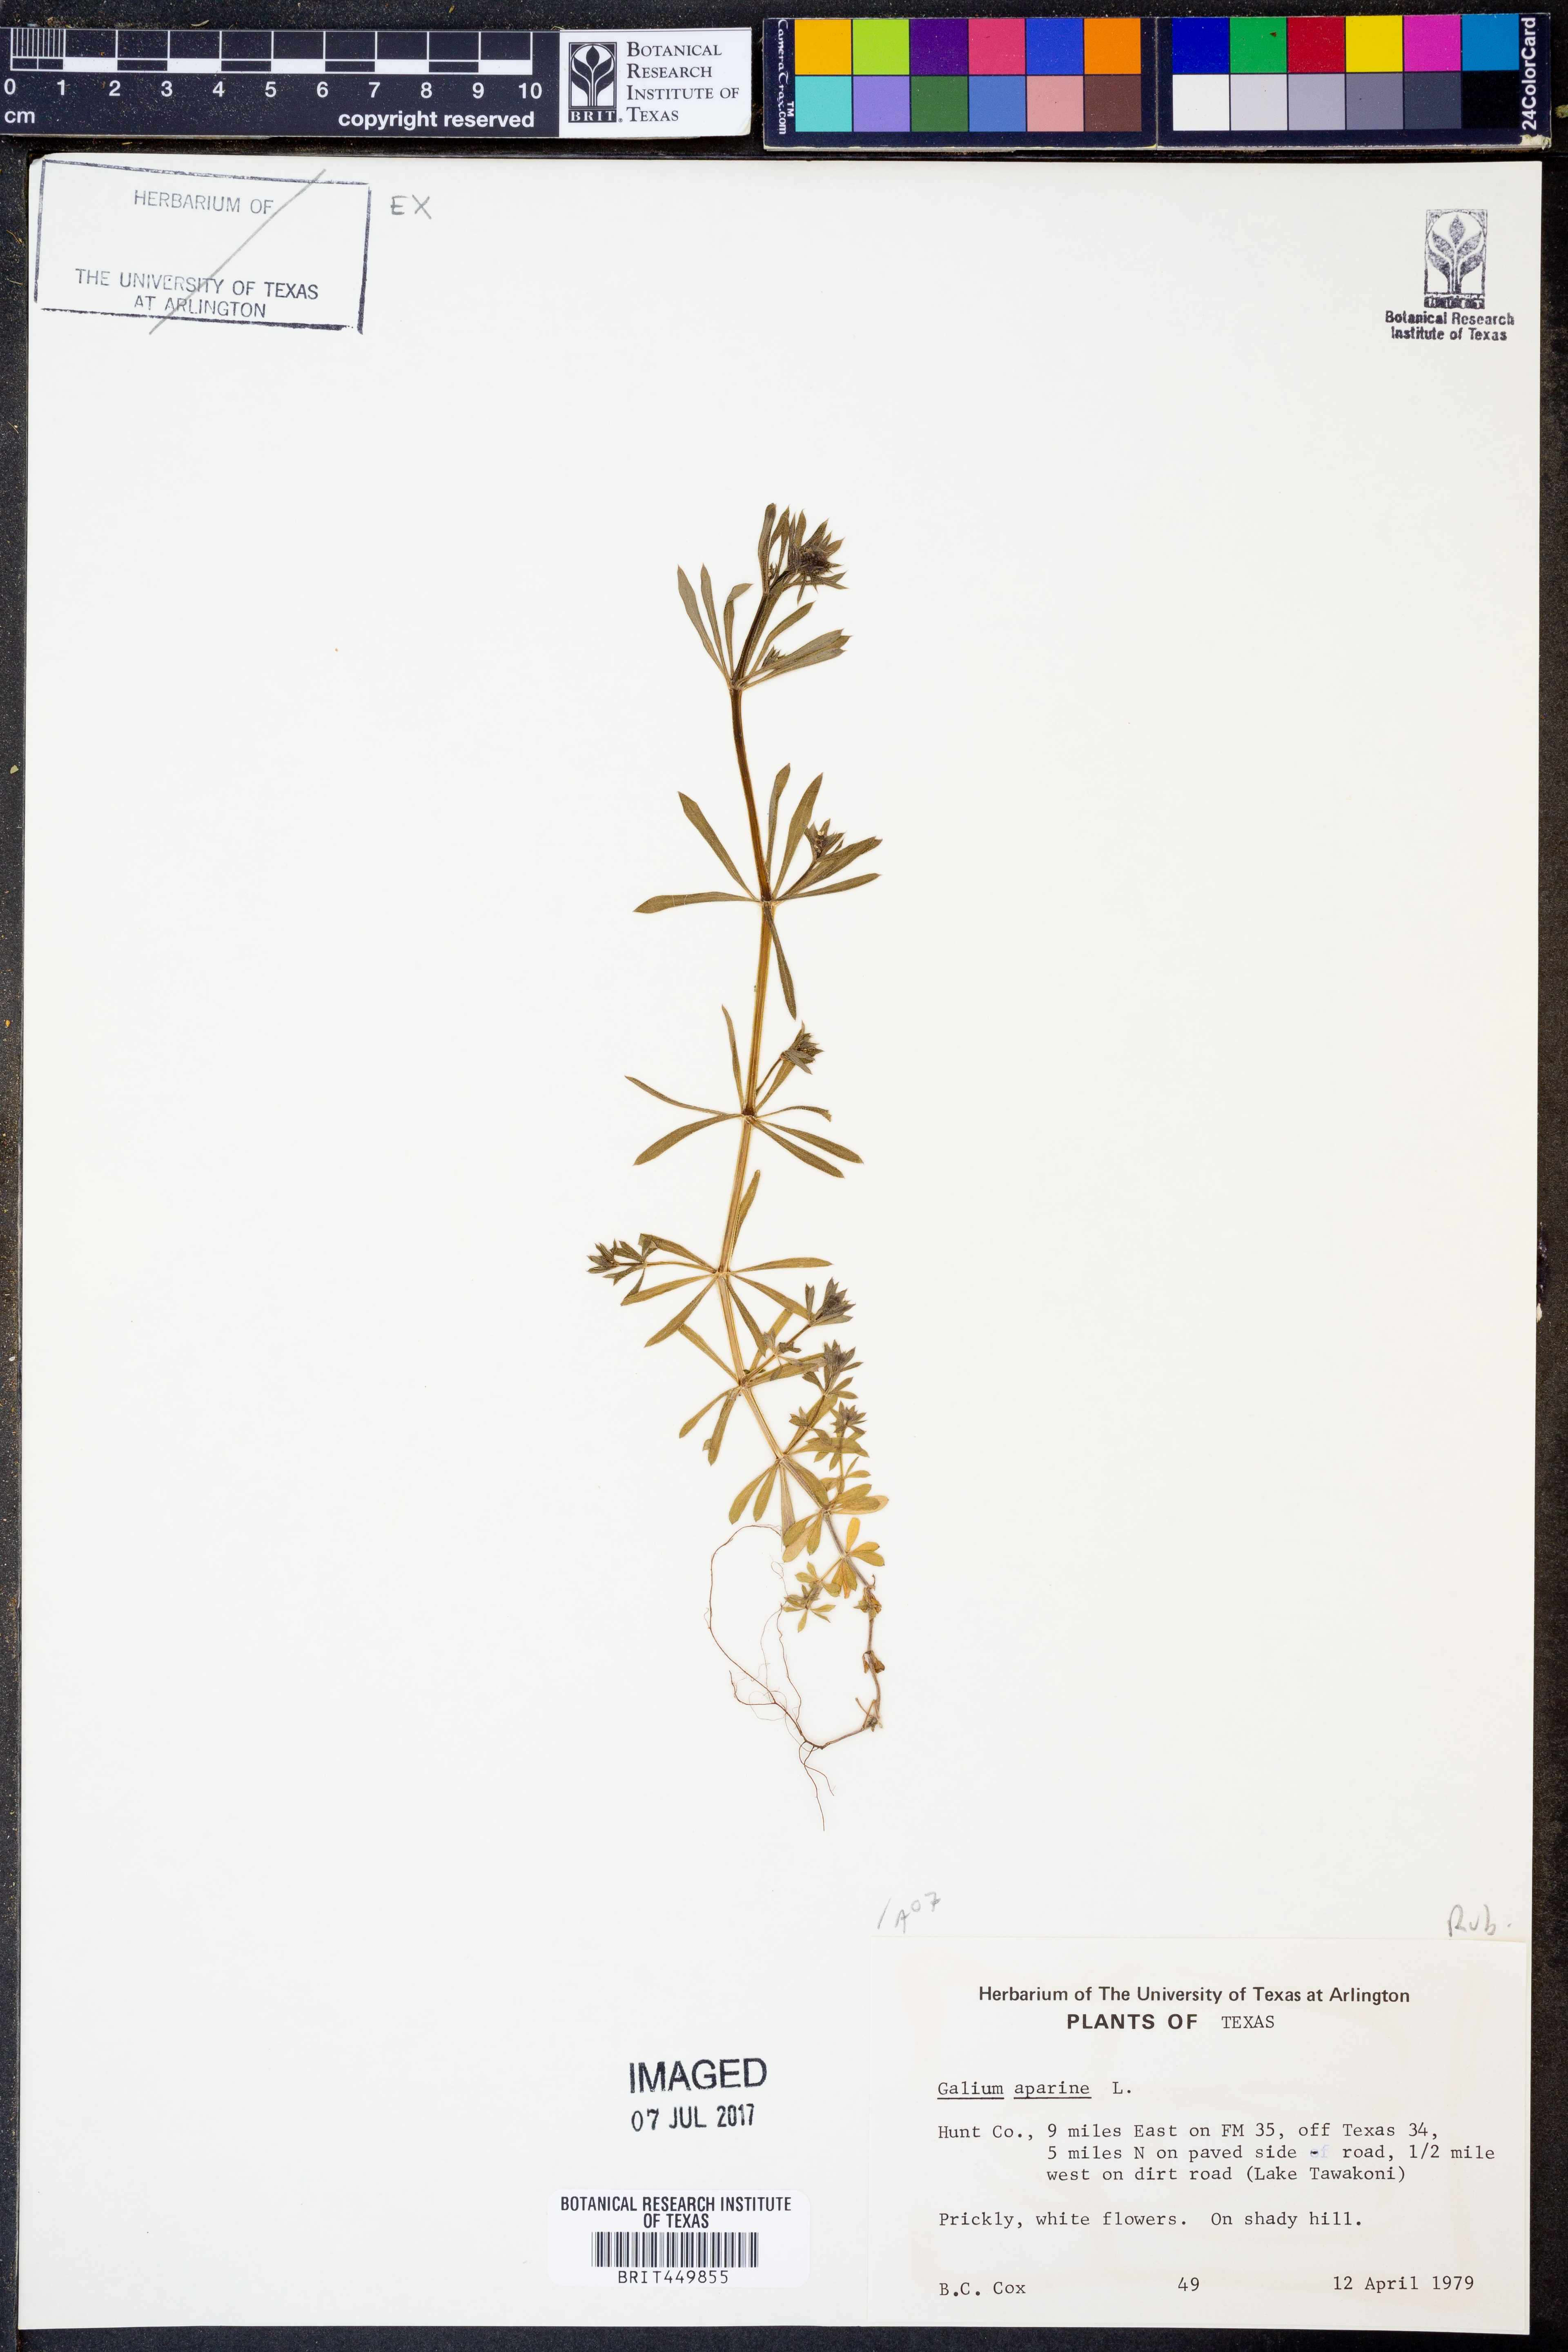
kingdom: Plantae
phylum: Tracheophyta
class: Magnoliopsida
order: Gentianales
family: Rubiaceae
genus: Galium
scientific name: Galium aparine
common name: Cleavers
